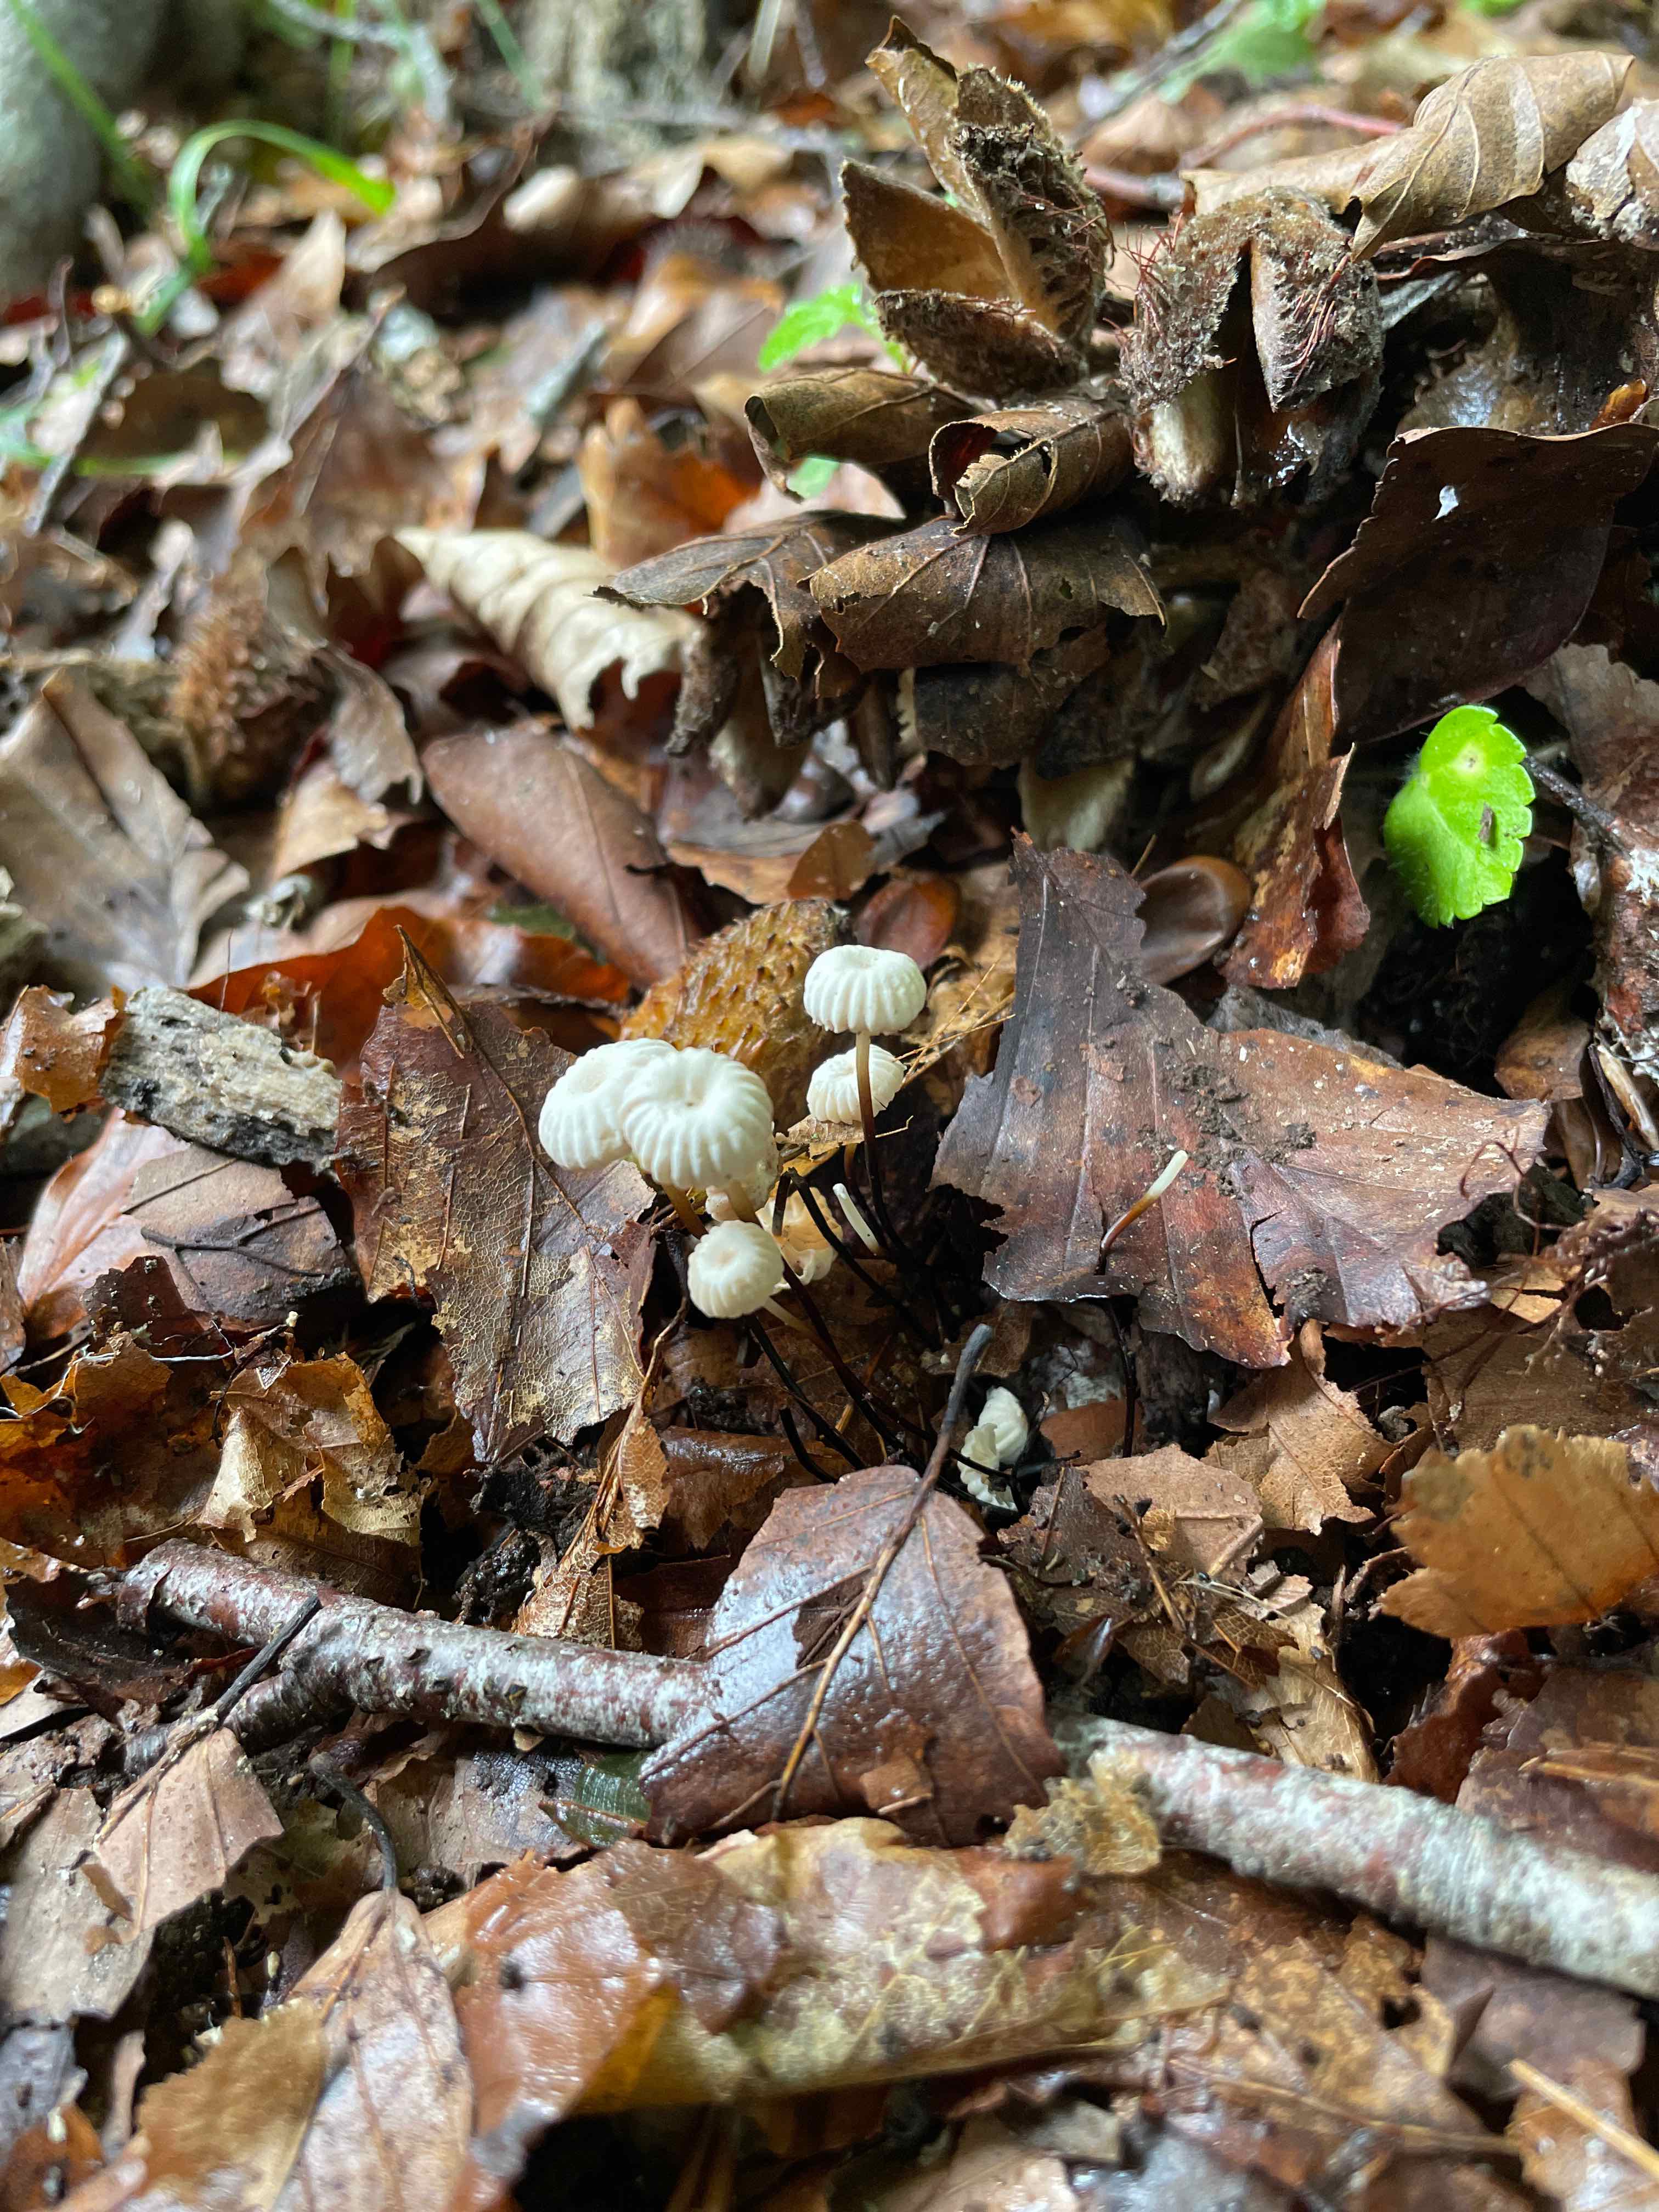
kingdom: Fungi
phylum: Basidiomycota
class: Agaricomycetes
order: Agaricales
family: Marasmiaceae
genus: Marasmius
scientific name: Marasmius rotula
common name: hjul-bruskhat
